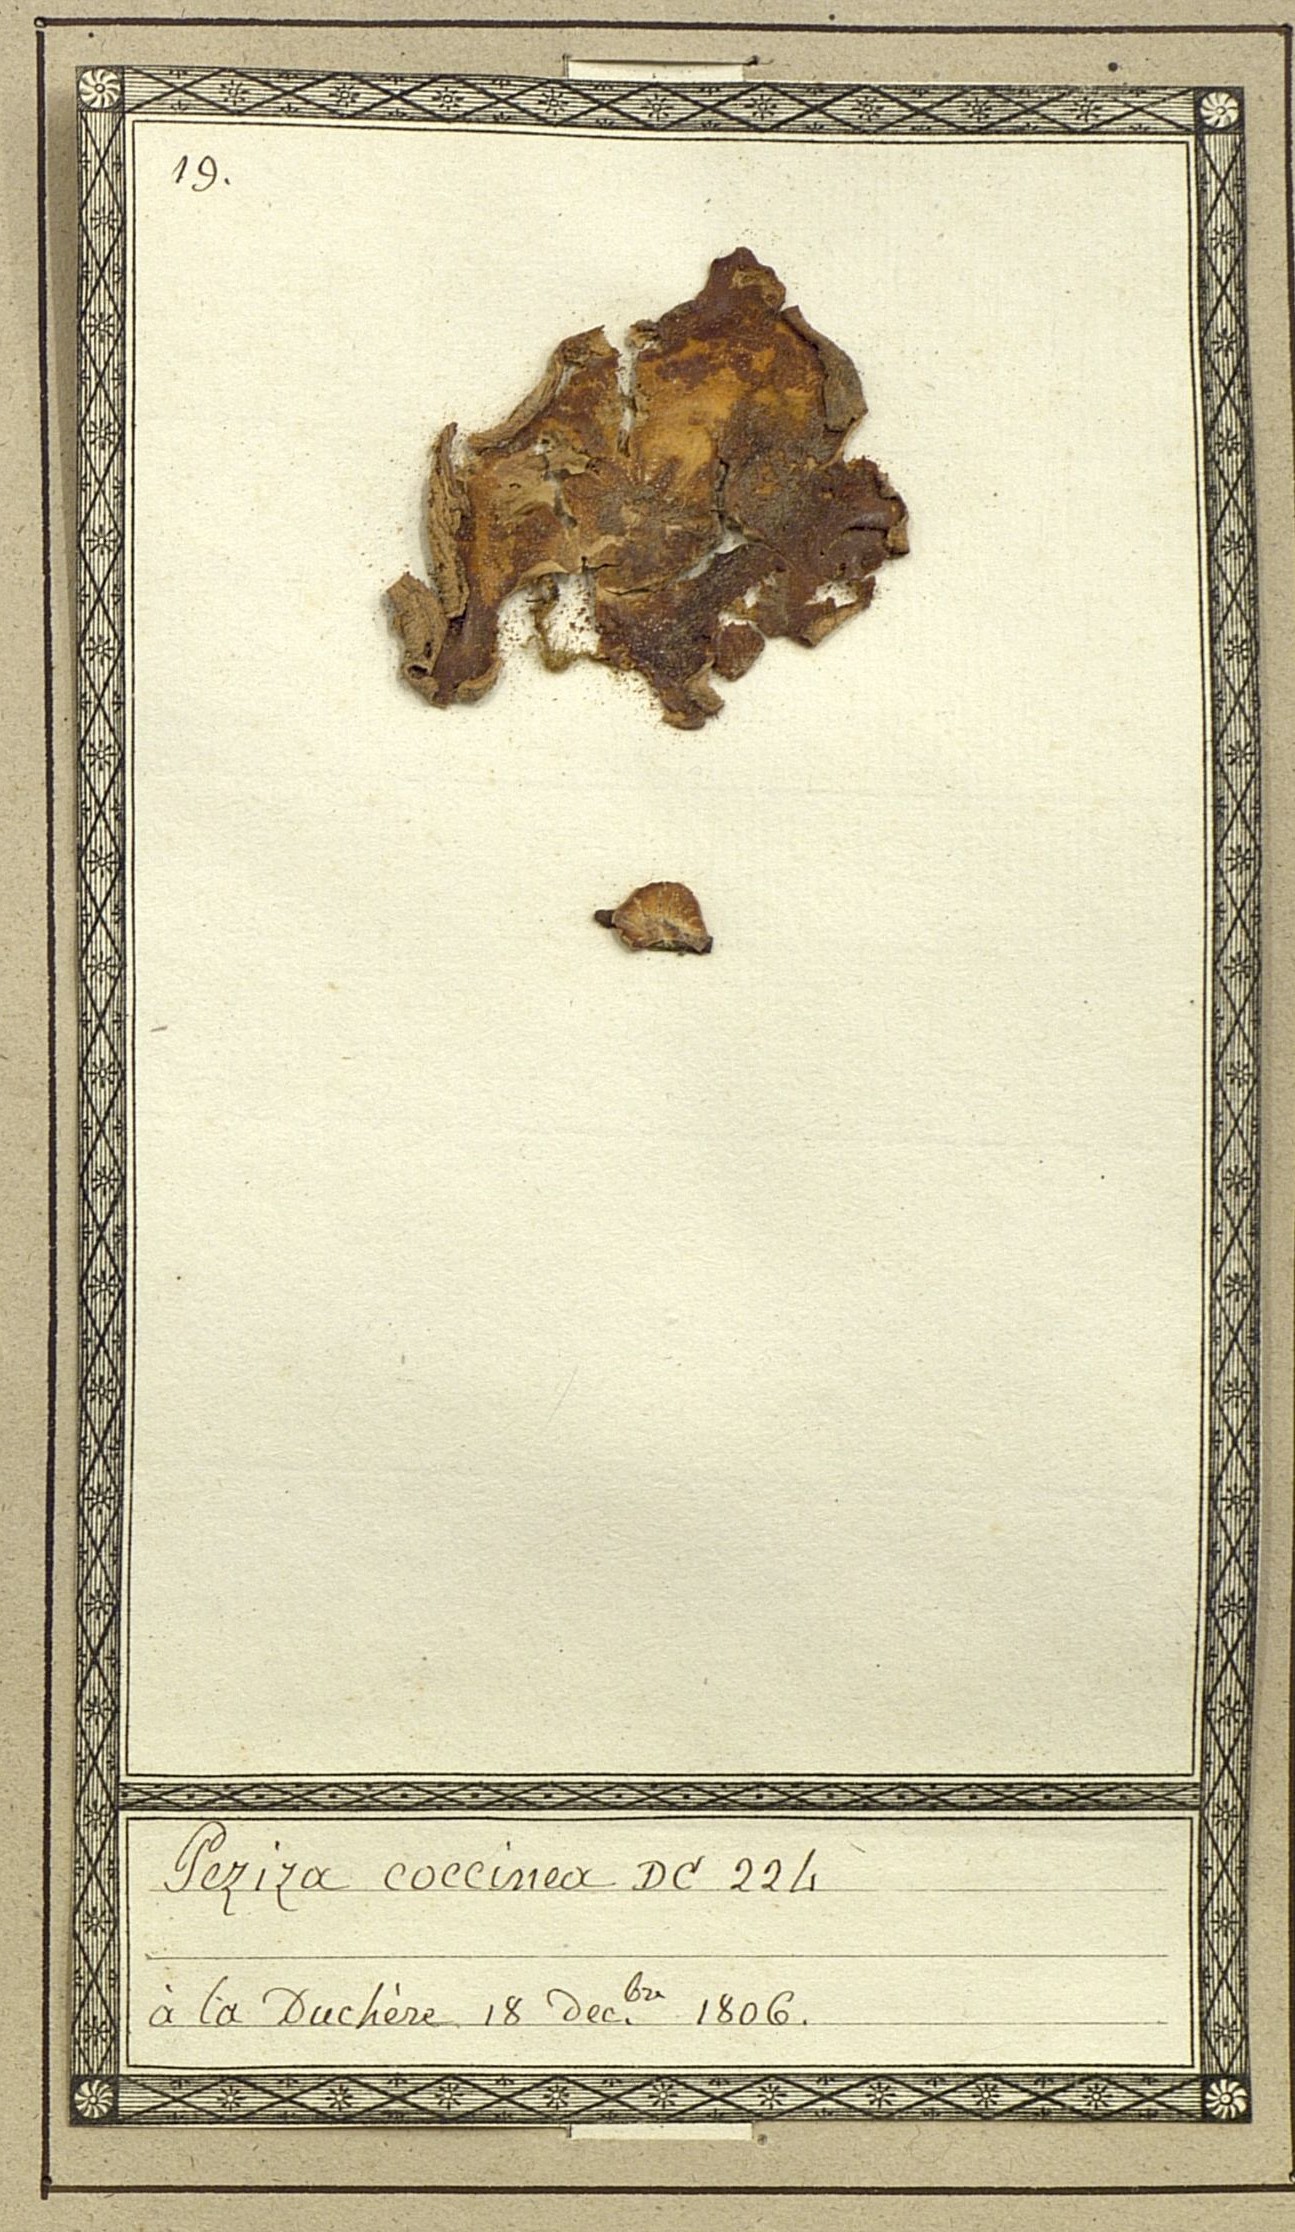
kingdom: Fungi
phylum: Ascomycota
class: Pezizomycetes
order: Pezizales
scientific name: Pezizales
